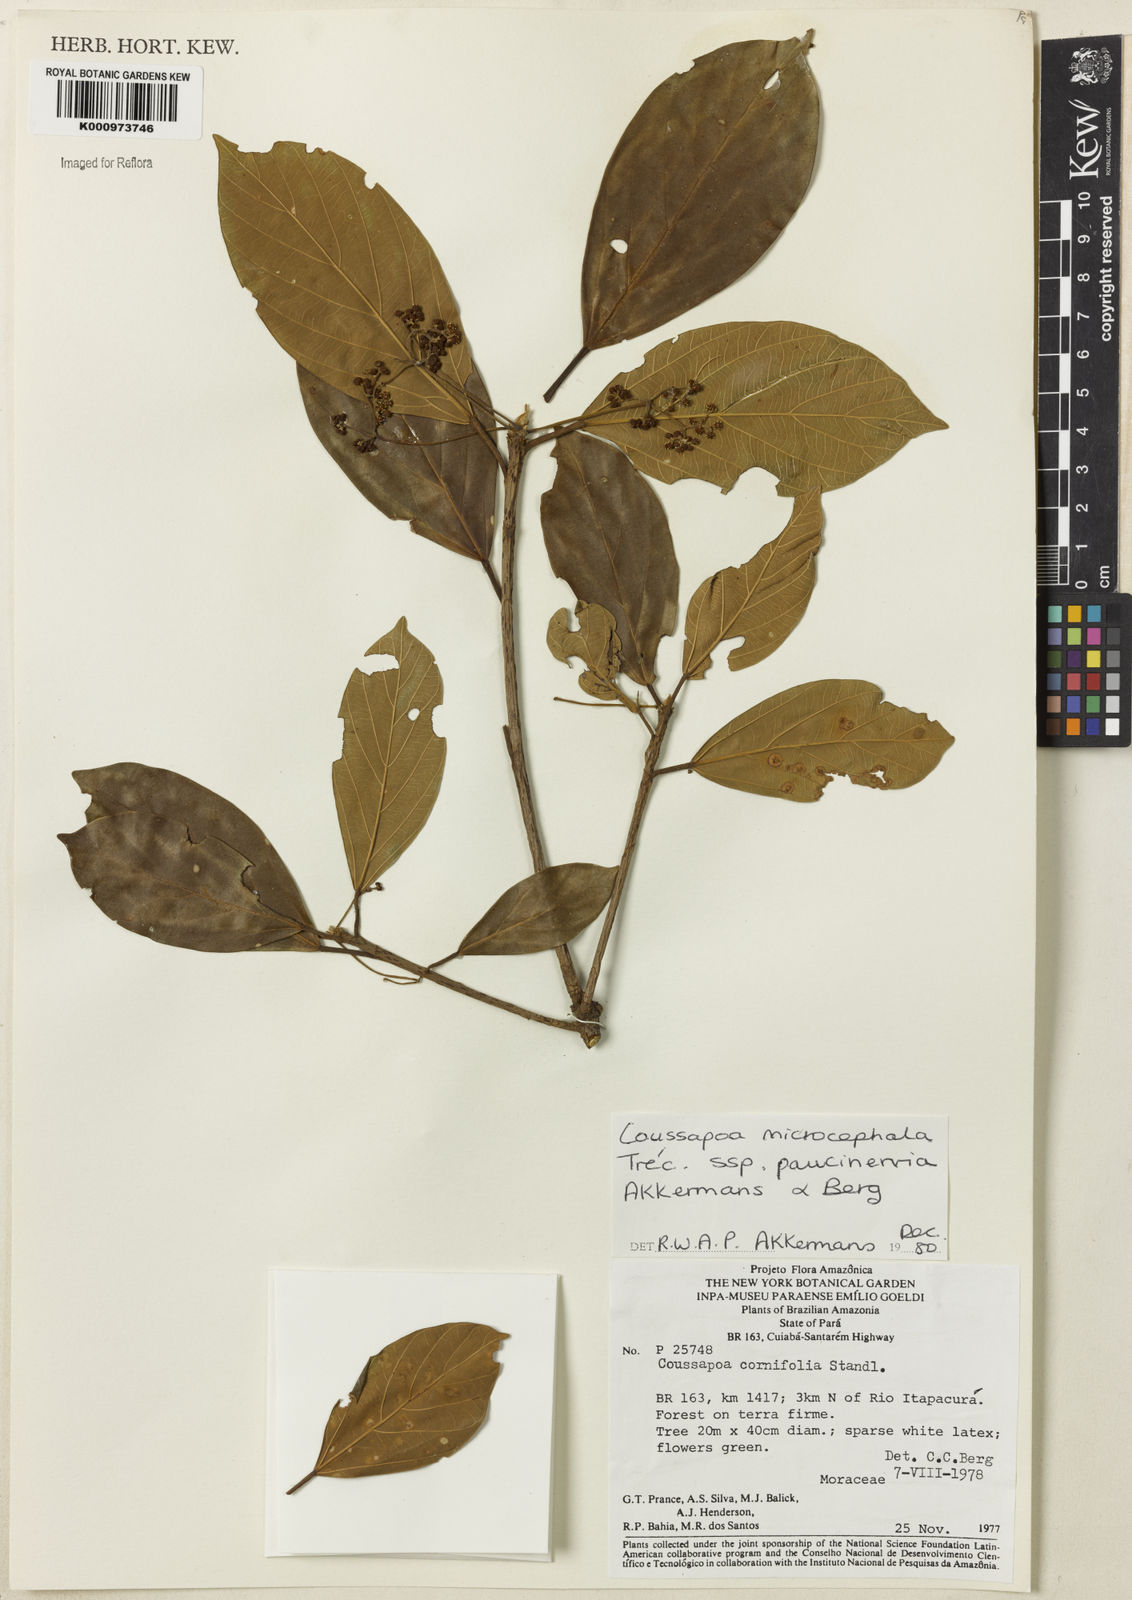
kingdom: Plantae
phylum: Tracheophyta
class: Magnoliopsida
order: Rosales
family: Urticaceae
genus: Coussapoa
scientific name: Coussapoa
